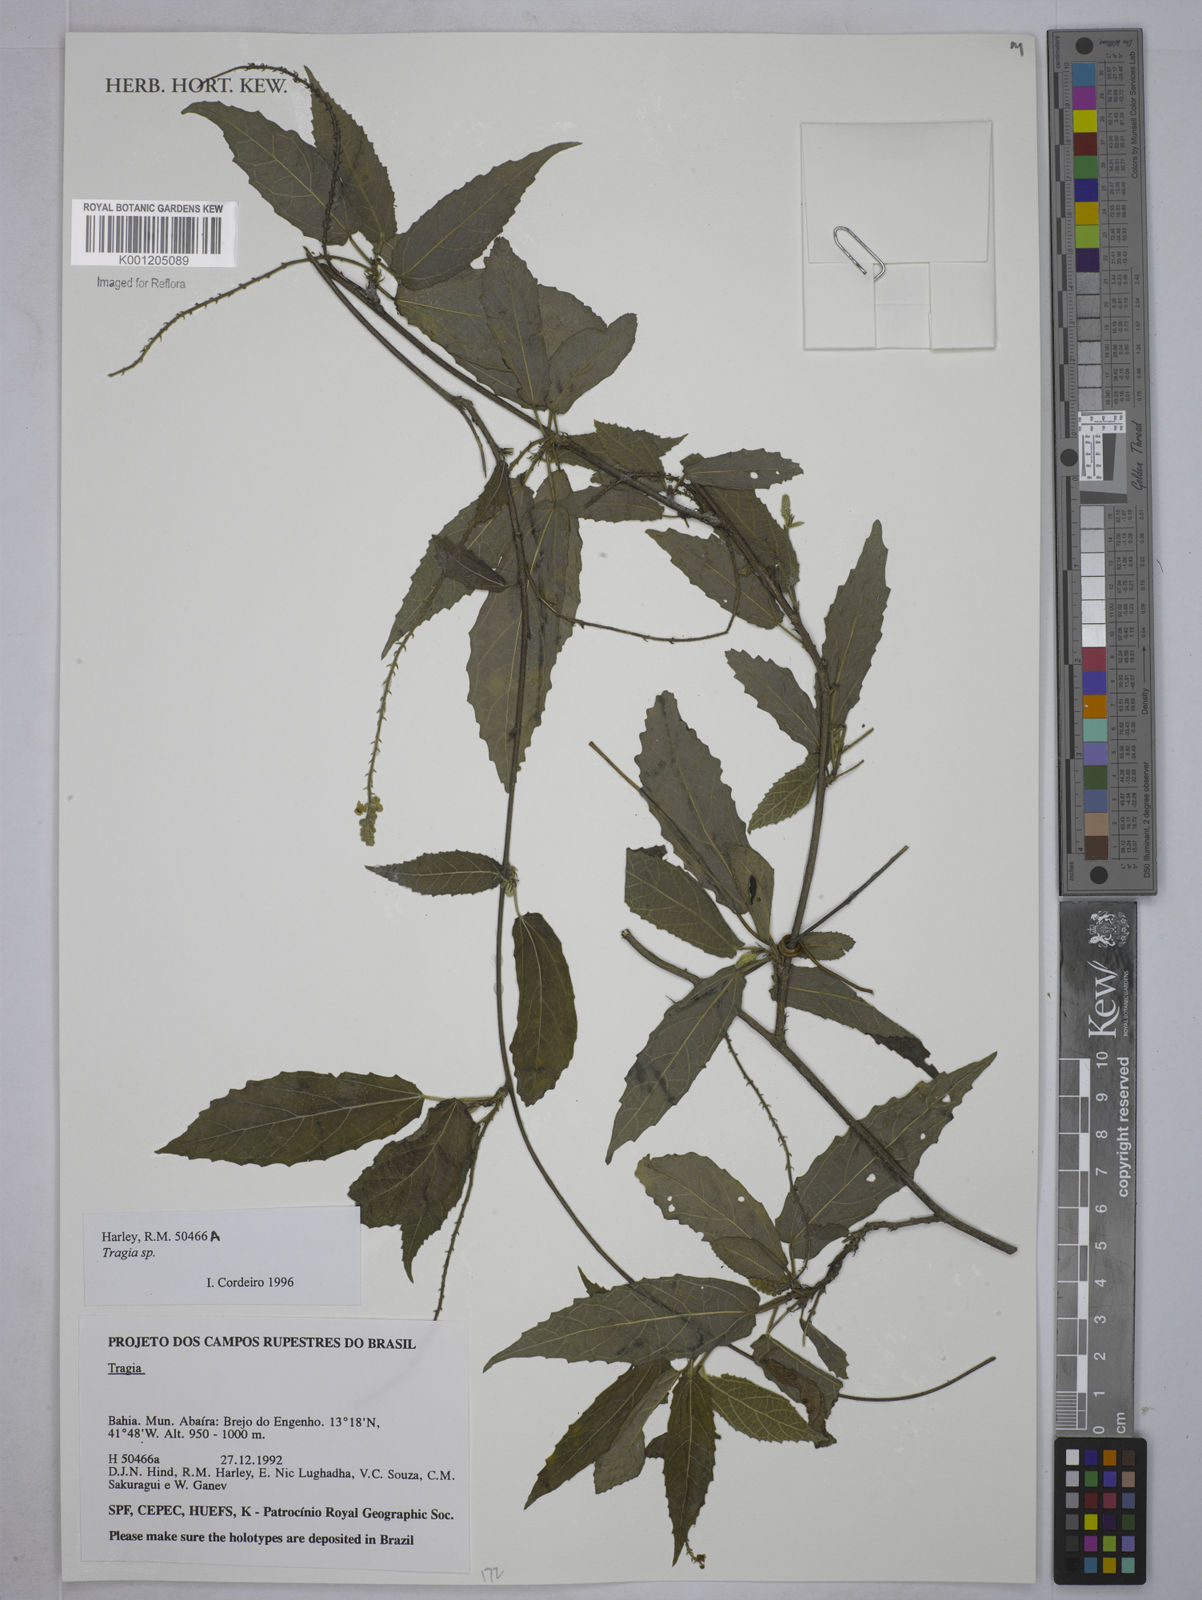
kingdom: Plantae
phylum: Tracheophyta
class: Magnoliopsida
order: Malpighiales
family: Euphorbiaceae
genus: Tragia
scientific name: Tragia
